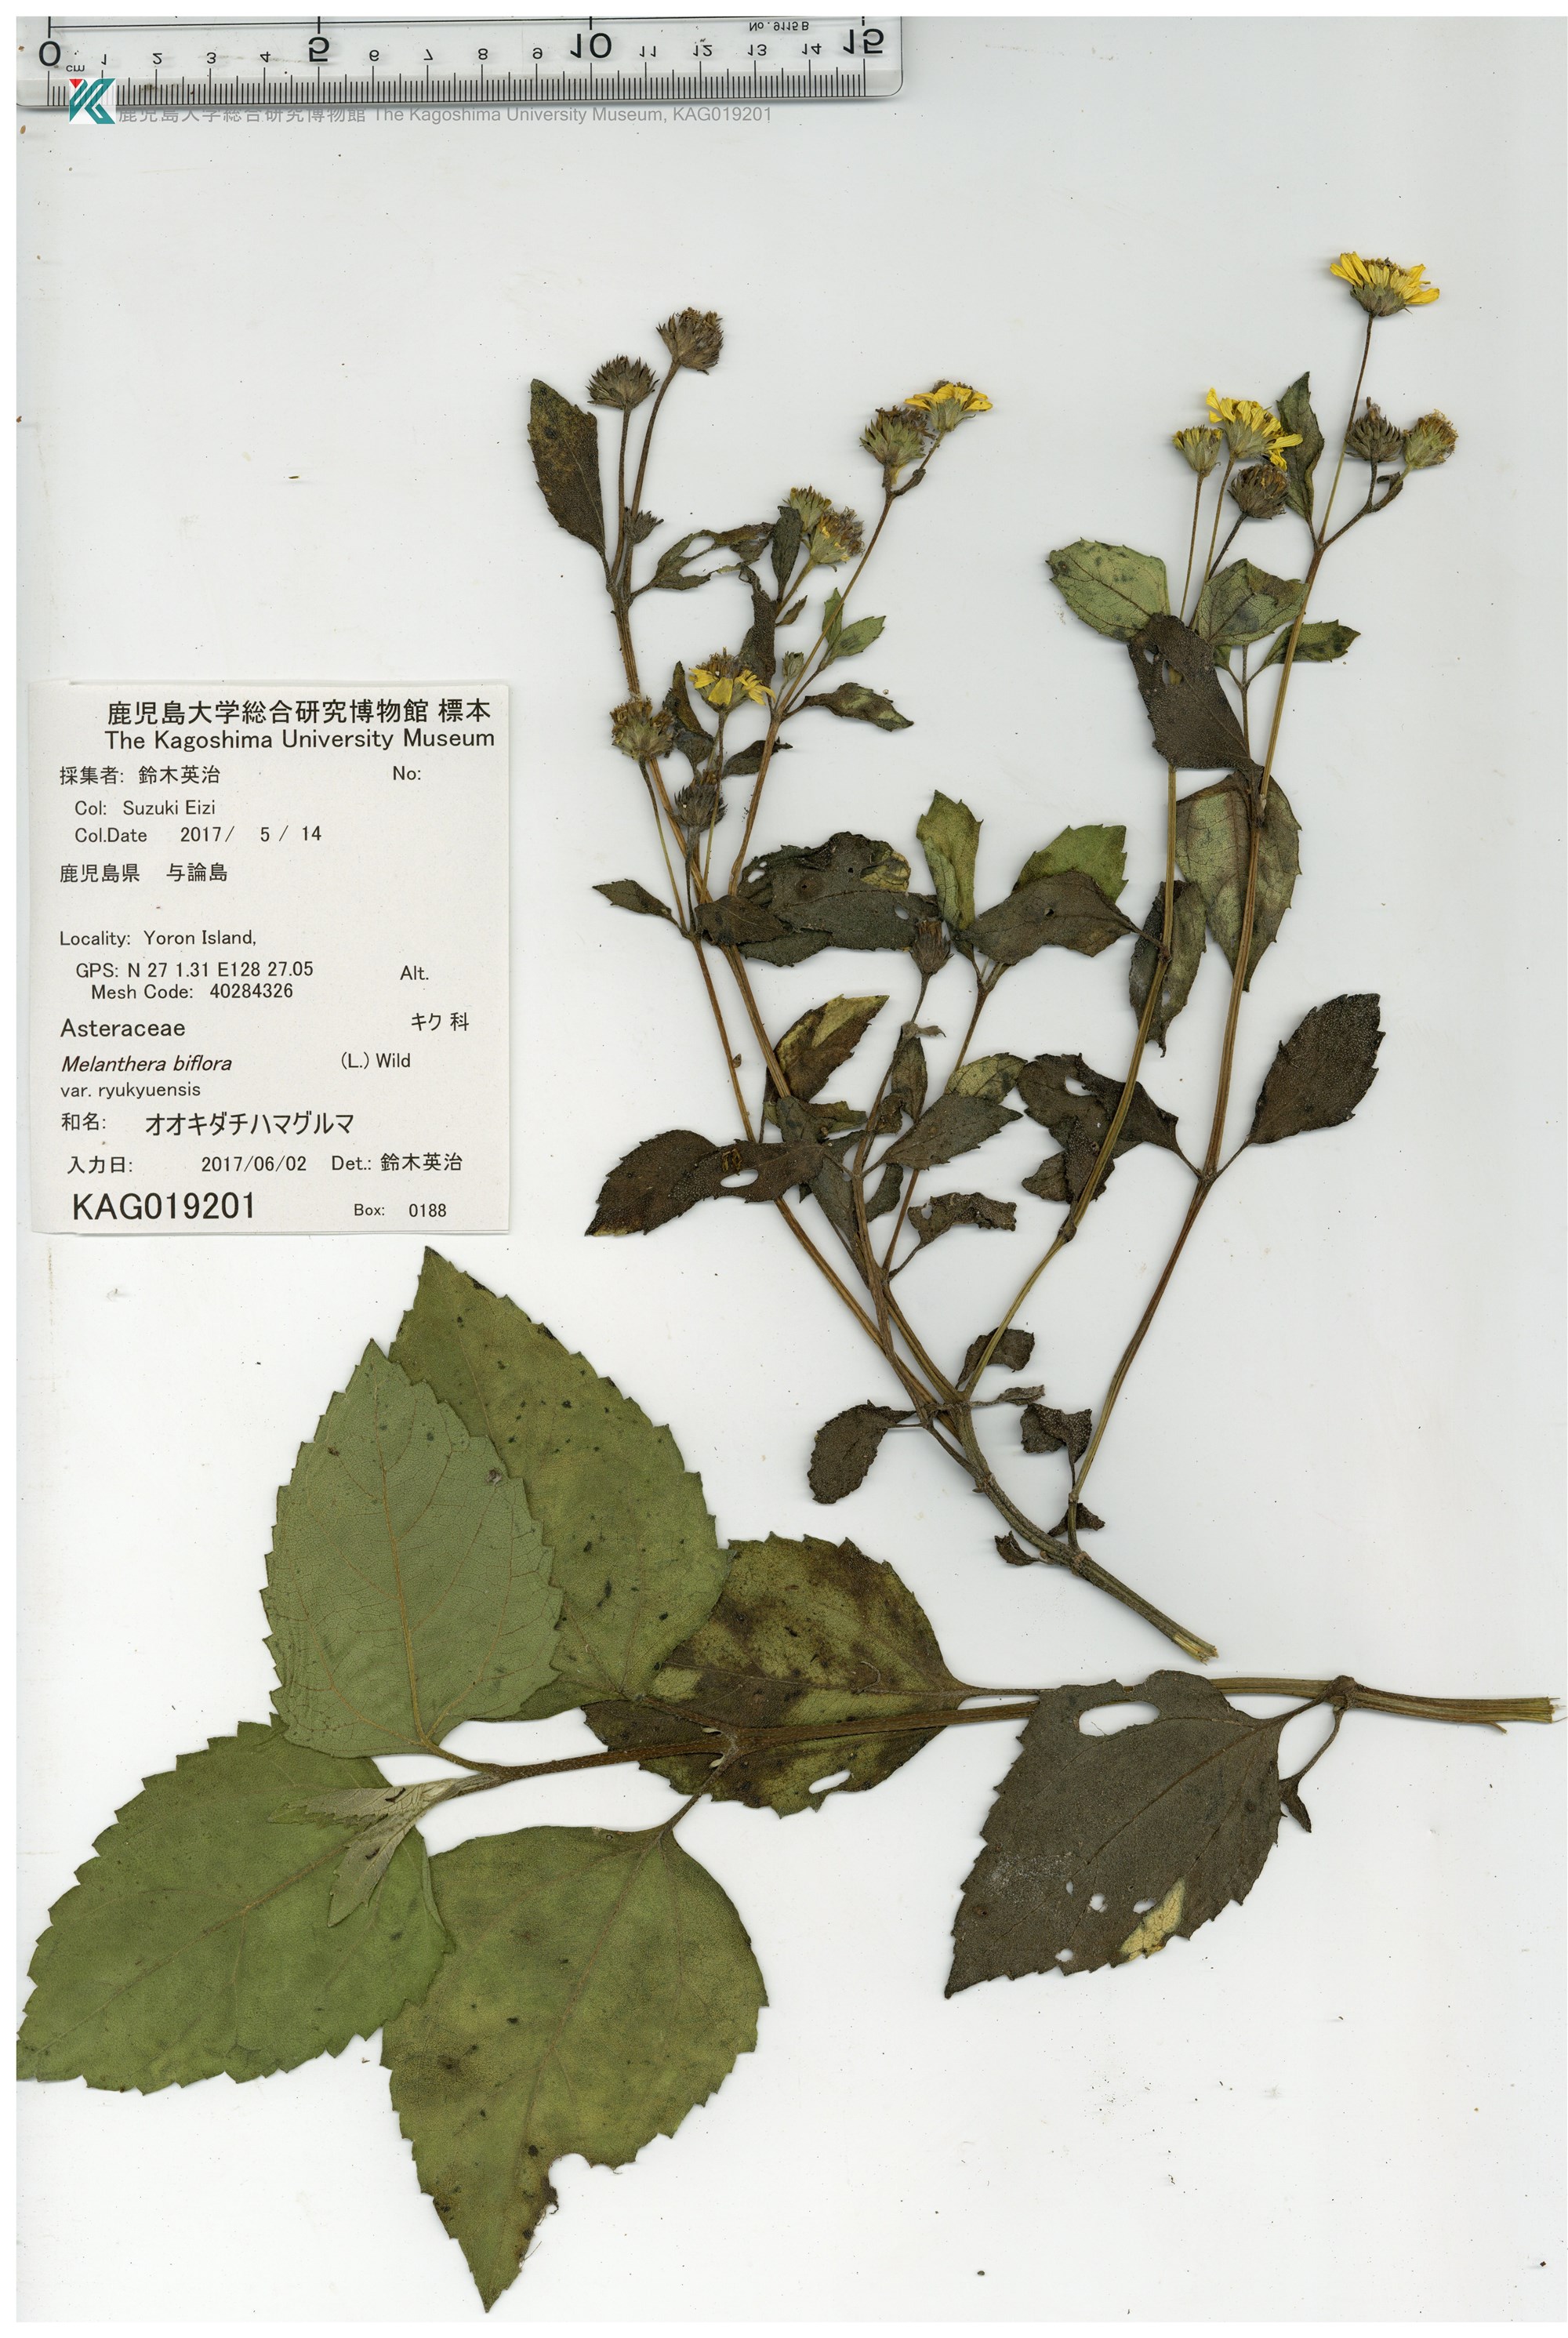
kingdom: Plantae
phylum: Tracheophyta
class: Magnoliopsida
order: Asterales
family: Asteraceae
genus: Wollastonia
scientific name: Wollastonia biflora
